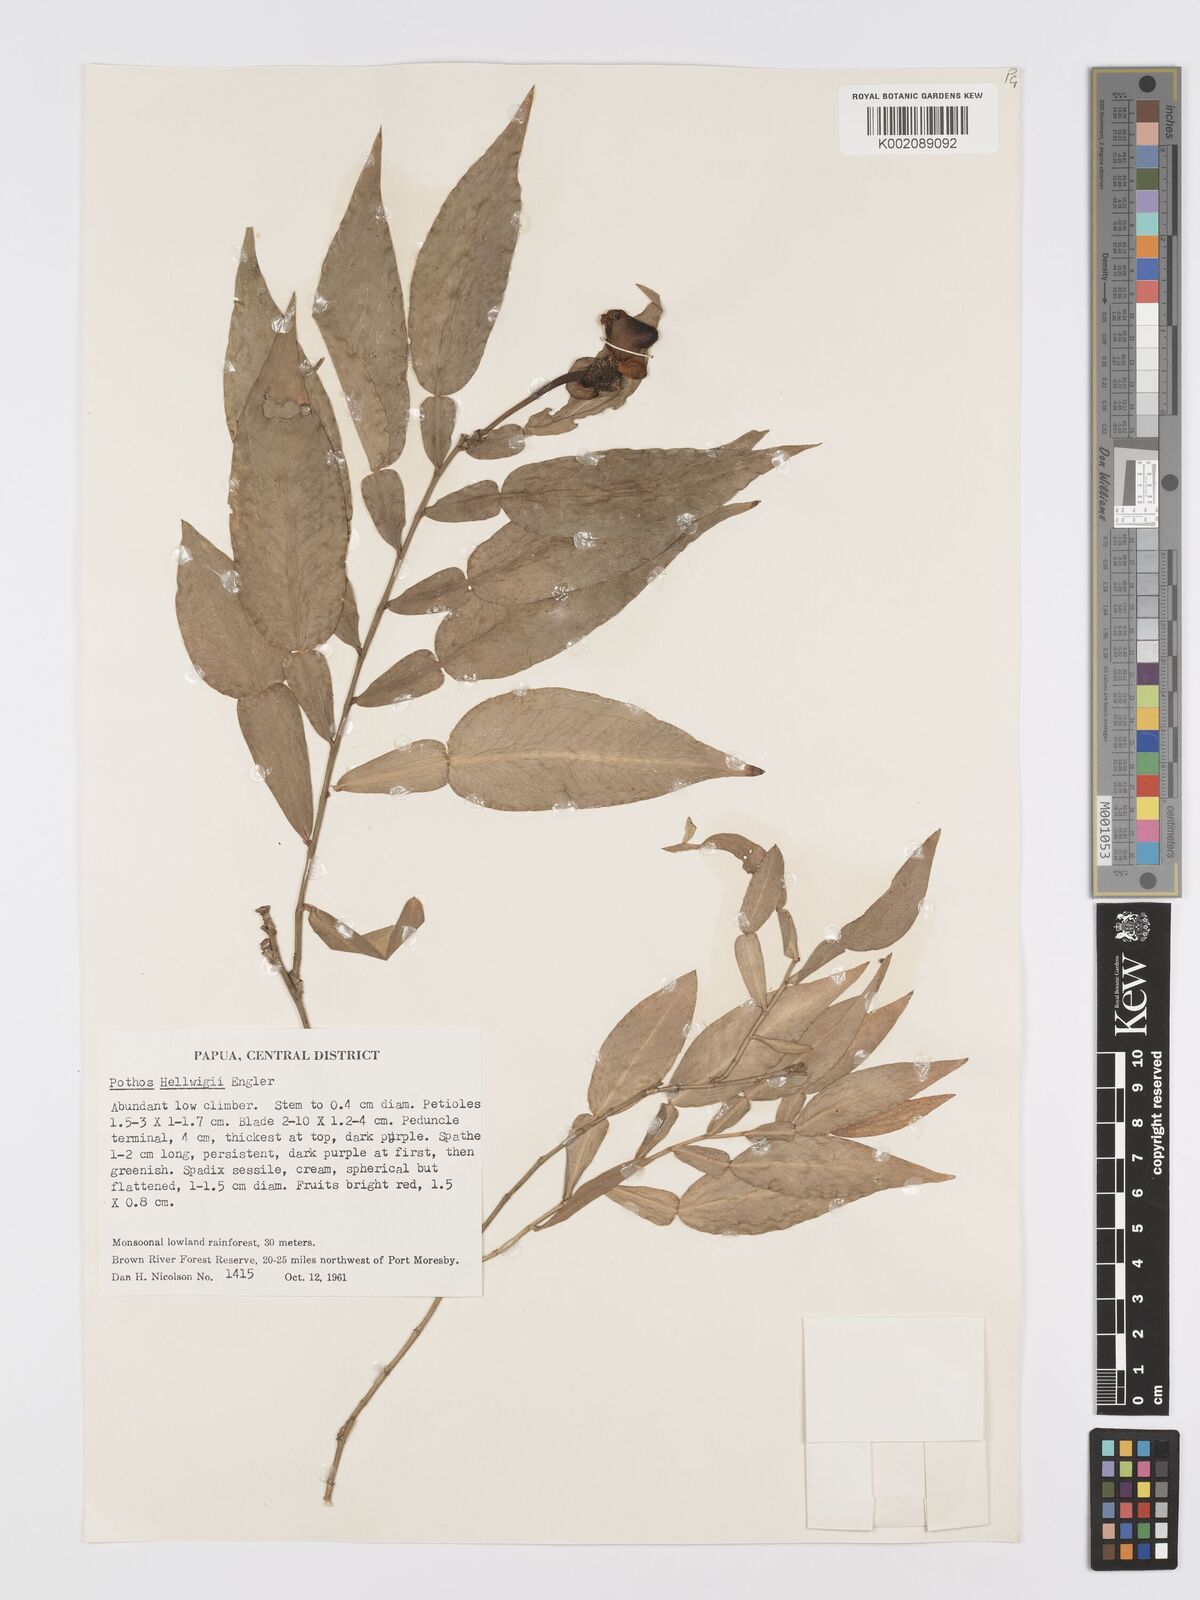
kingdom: Plantae
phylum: Tracheophyta
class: Liliopsida
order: Alismatales
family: Araceae
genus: Pothos
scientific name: Pothos hellwigii
